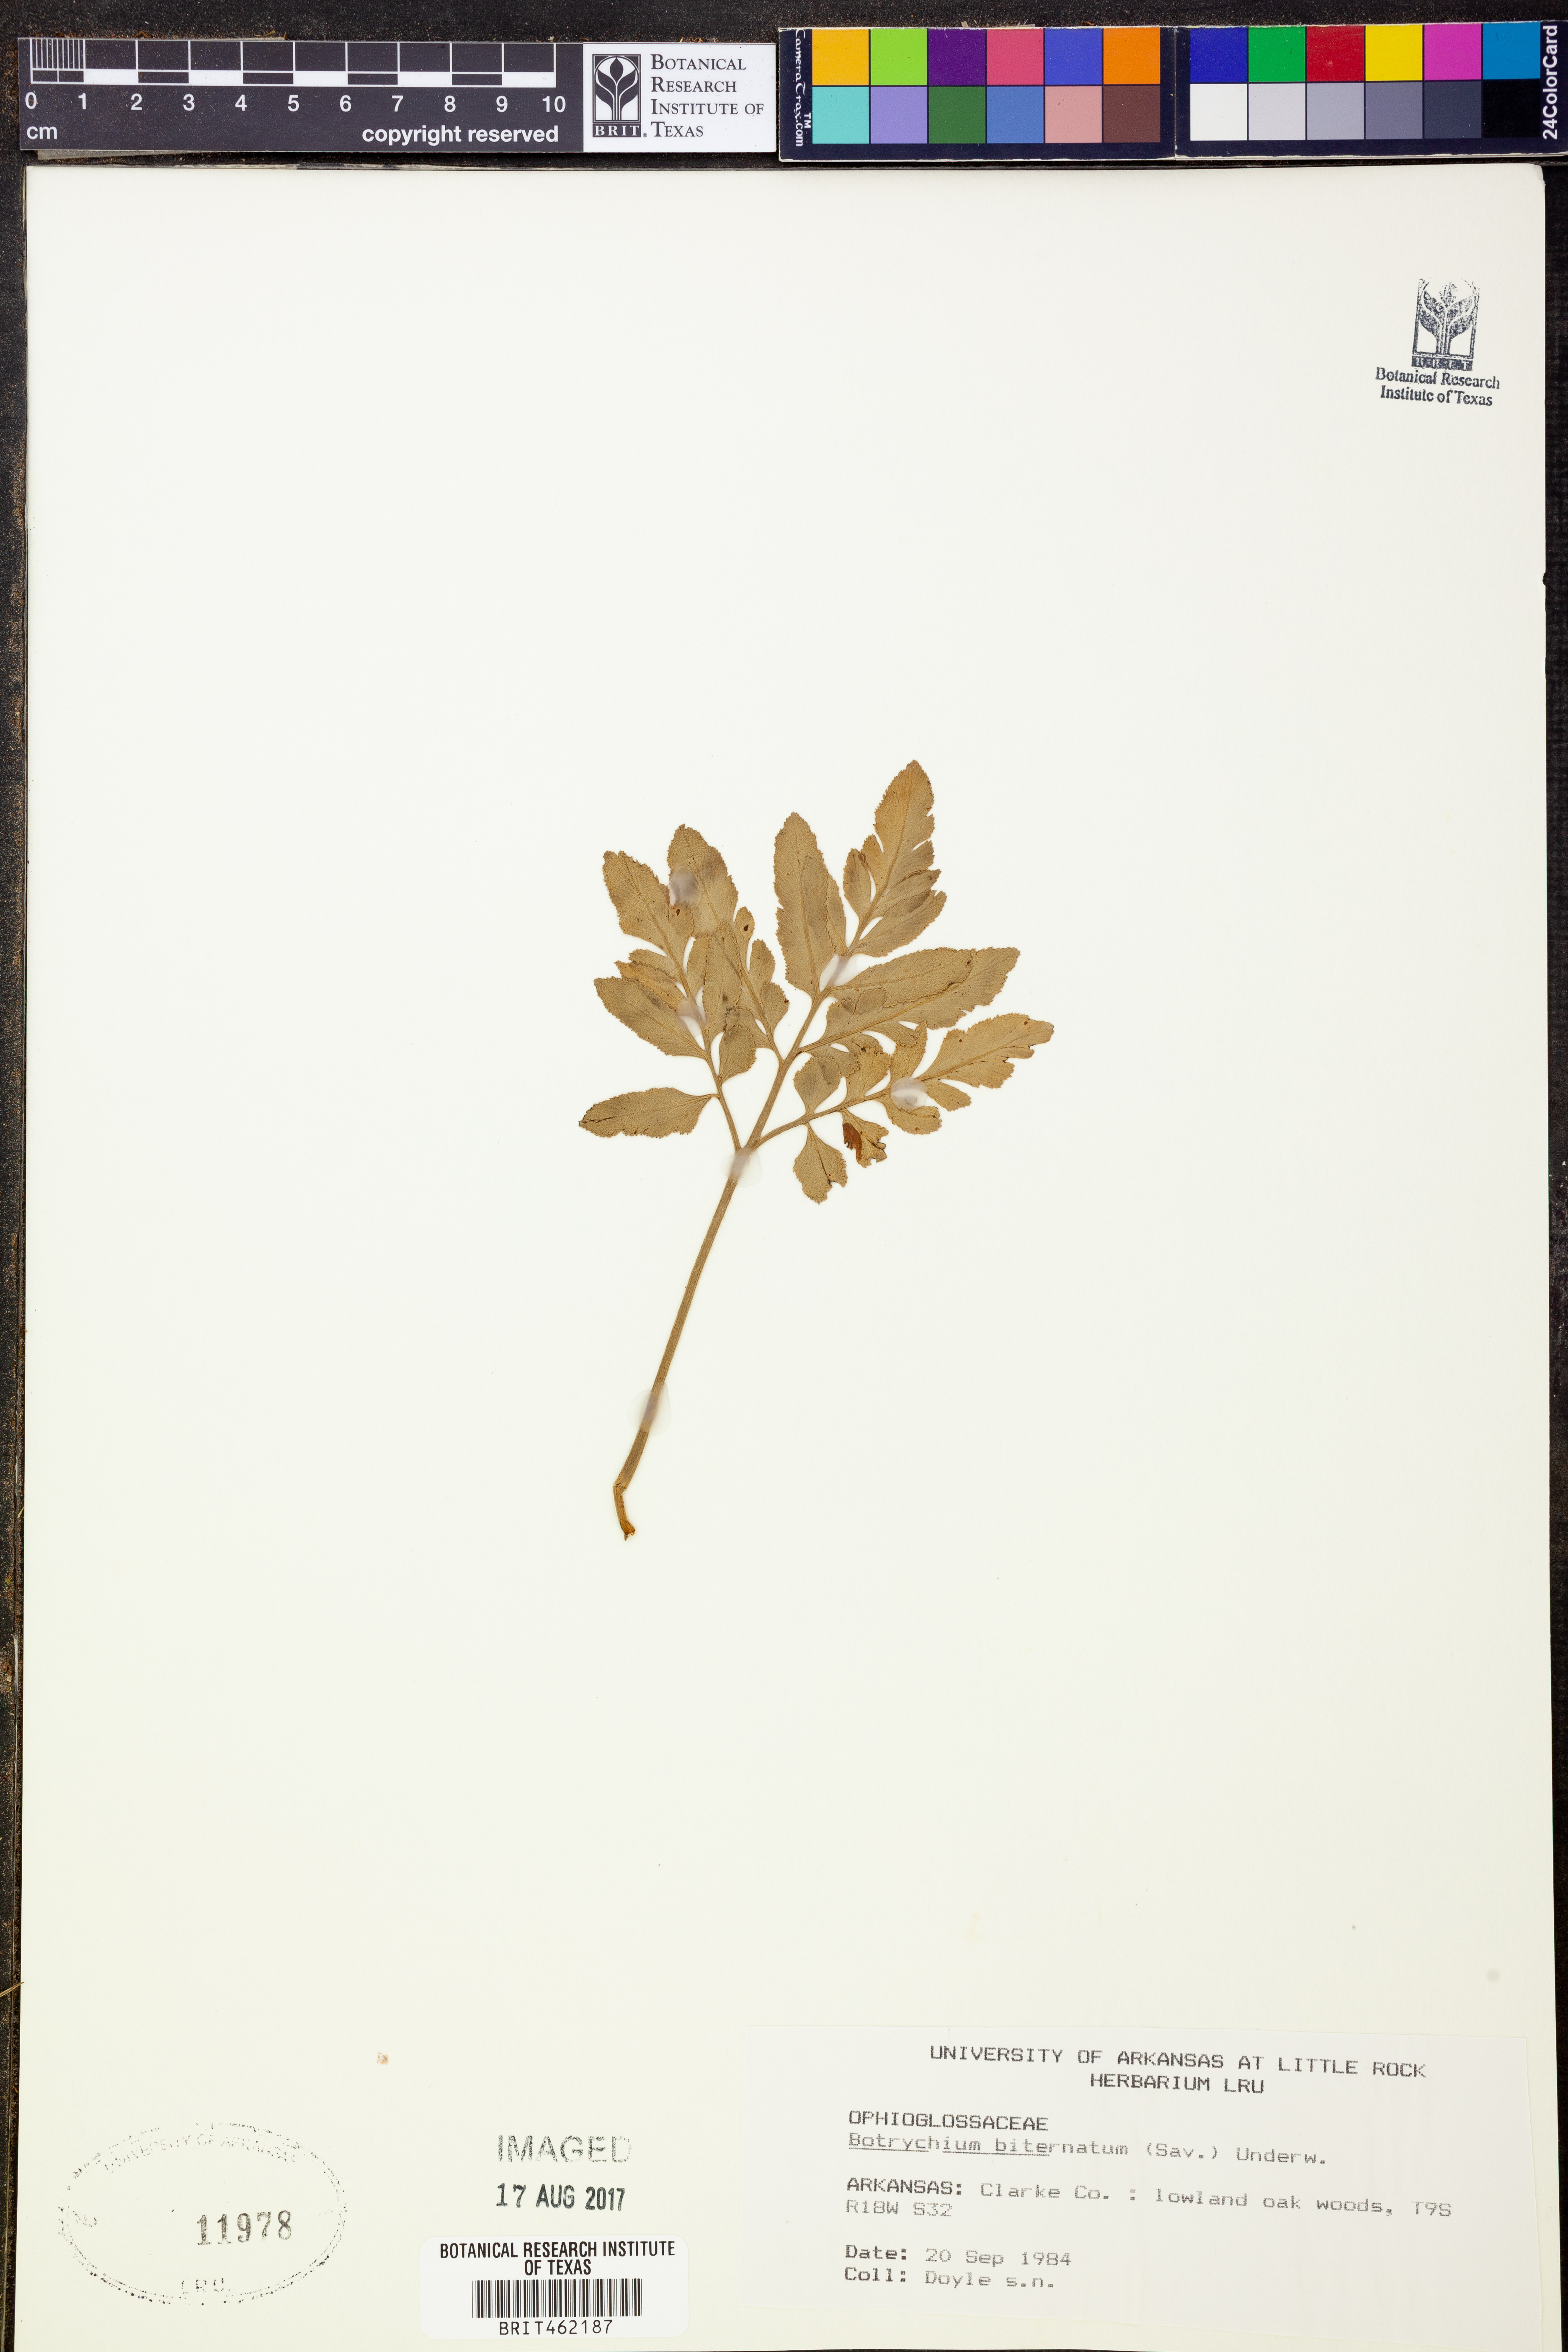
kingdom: Plantae
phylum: Tracheophyta
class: Polypodiopsida
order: Ophioglossales
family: Ophioglossaceae
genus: Sceptridium
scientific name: Sceptridium biternatum
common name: Sparse-lobed grapefern
